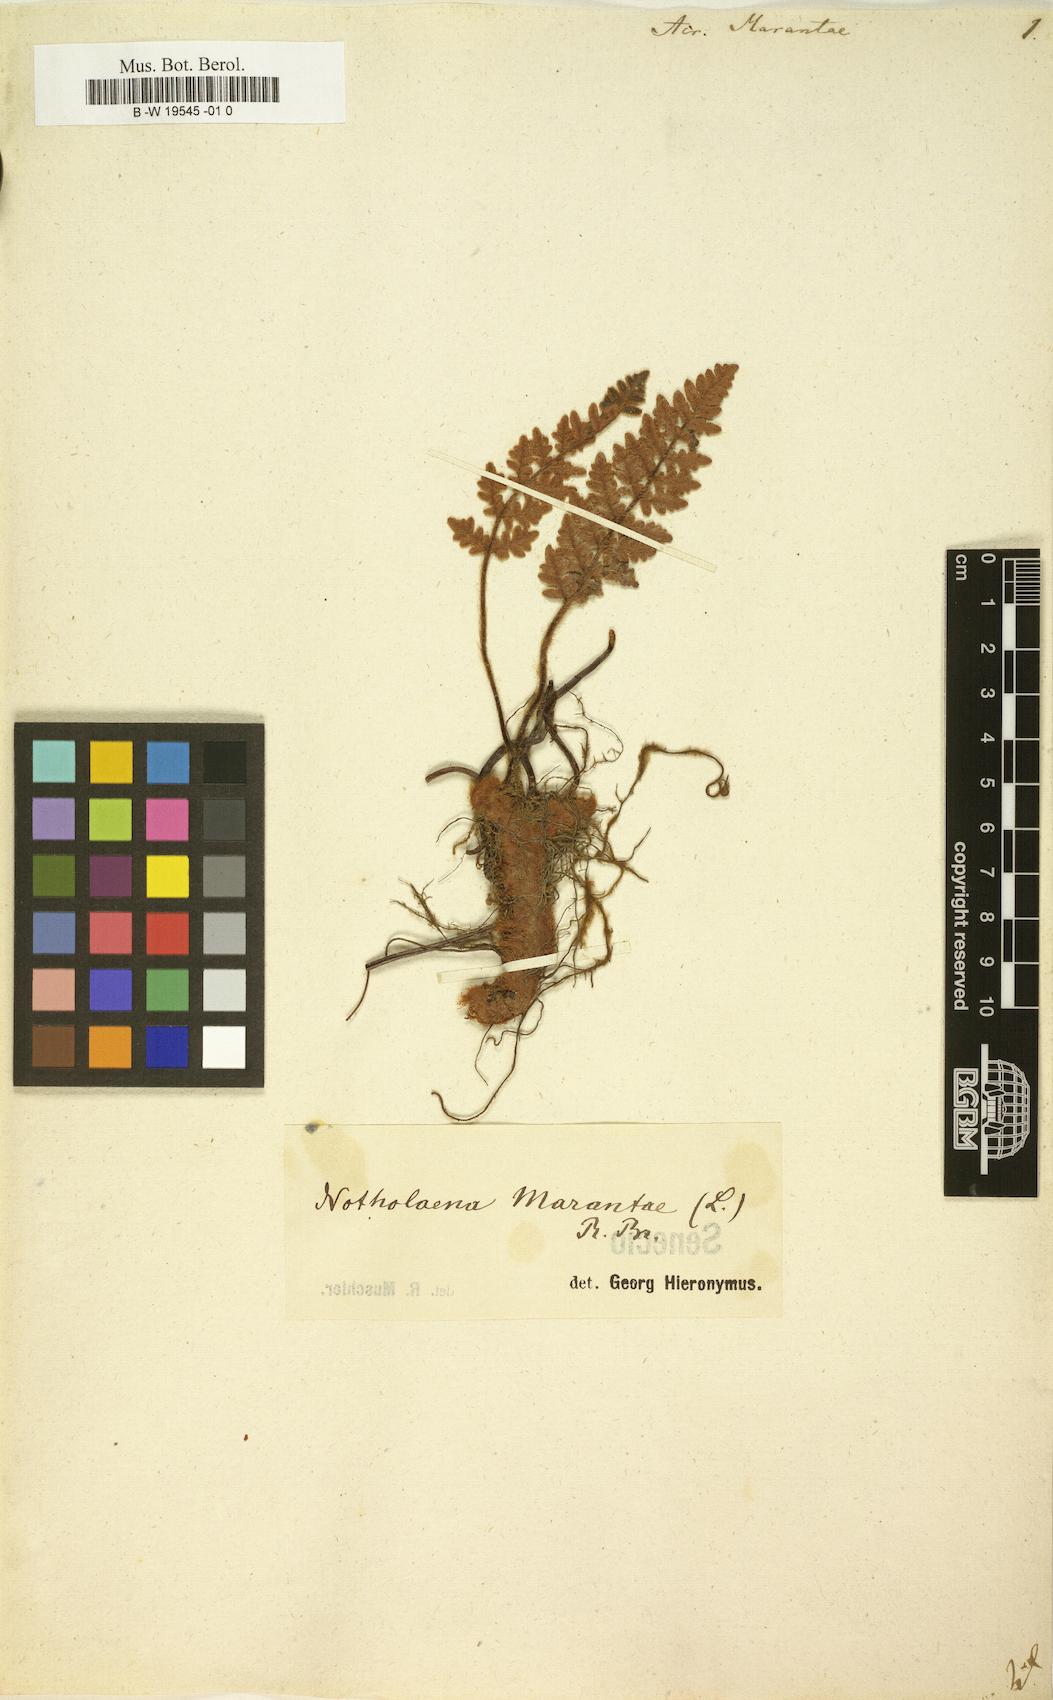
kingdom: Plantae
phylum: Tracheophyta
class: Polypodiopsida
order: Polypodiales
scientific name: Polypodiales
